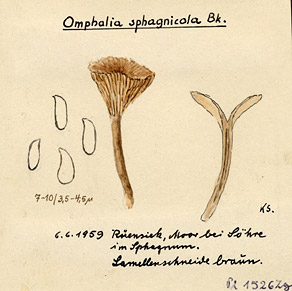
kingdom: Fungi
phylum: Basidiomycota
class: Agaricomycetes
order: Agaricales
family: Hygrophoraceae
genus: Lichenomphalia
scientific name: Lichenomphalia umbellifera
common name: Heath navel
